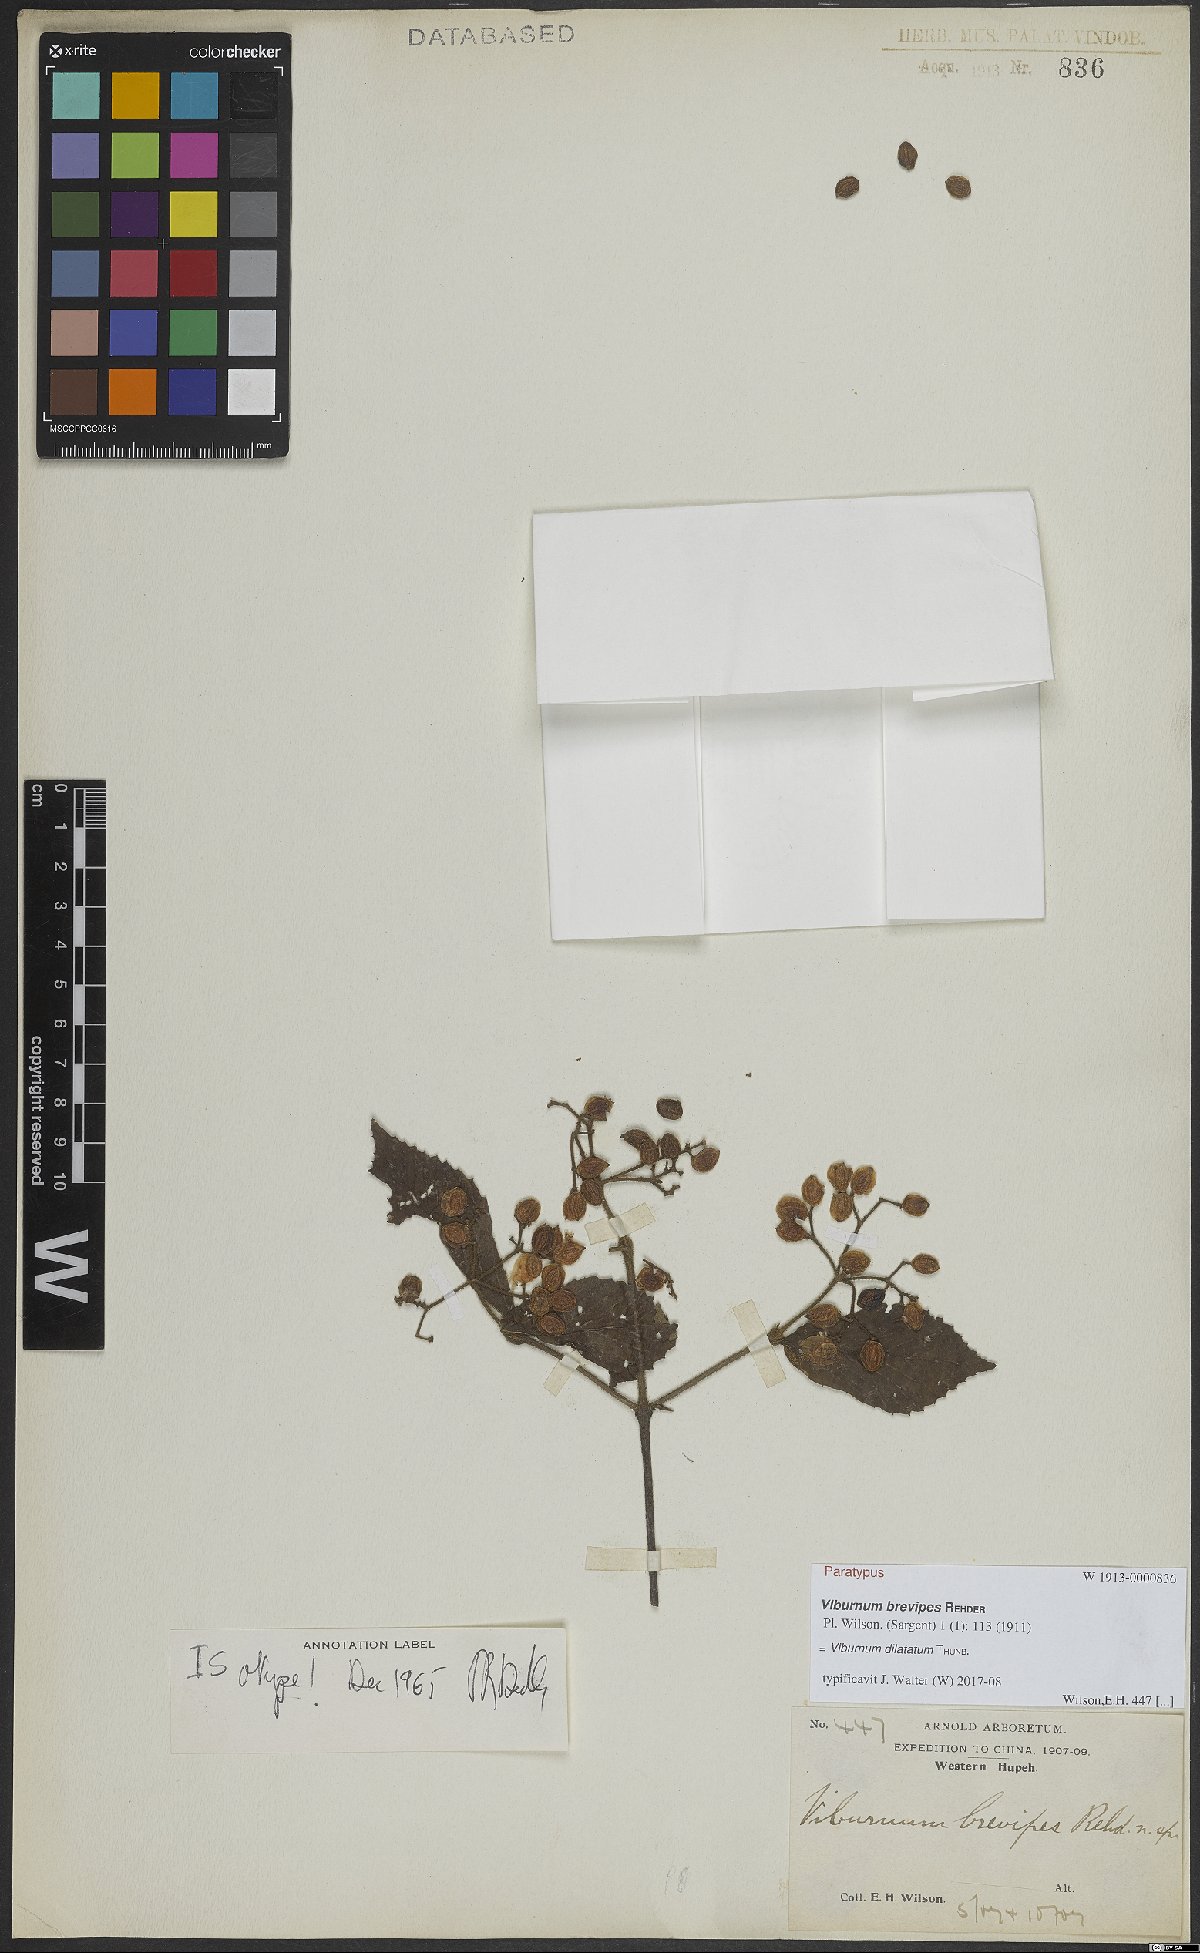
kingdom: Plantae
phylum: Tracheophyta
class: Magnoliopsida
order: Dipsacales
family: Viburnaceae
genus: Viburnum
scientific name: Viburnum dilatatum
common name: Linden arrowwood
